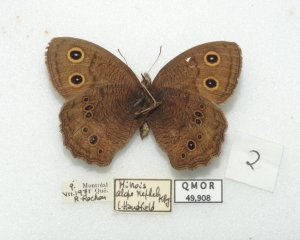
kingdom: Animalia
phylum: Arthropoda
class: Insecta
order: Lepidoptera
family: Nymphalidae
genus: Cercyonis
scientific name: Cercyonis pegala
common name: Common Wood-Nymph
